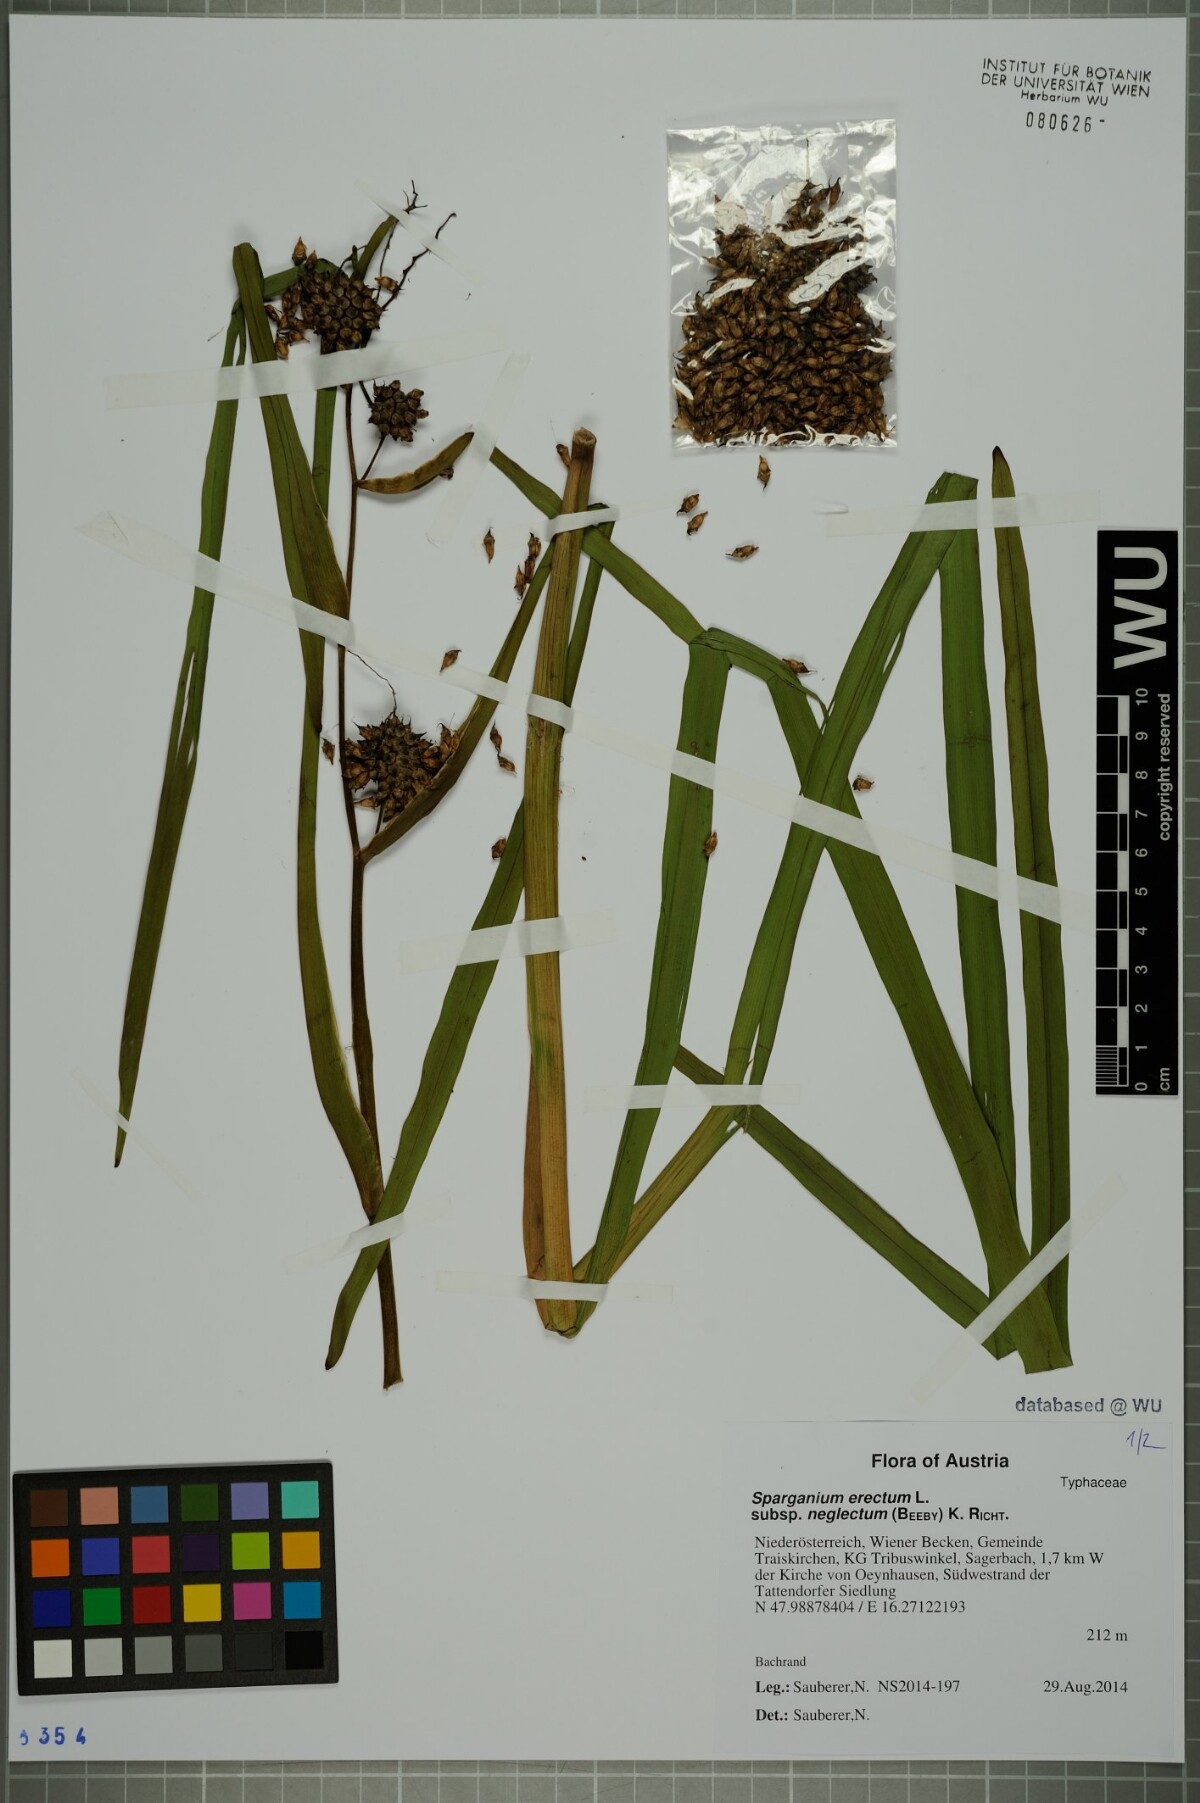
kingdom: Plantae
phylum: Tracheophyta
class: Liliopsida
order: Poales
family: Typhaceae
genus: Sparganium
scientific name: Sparganium erectum
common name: Branched bur-reed
